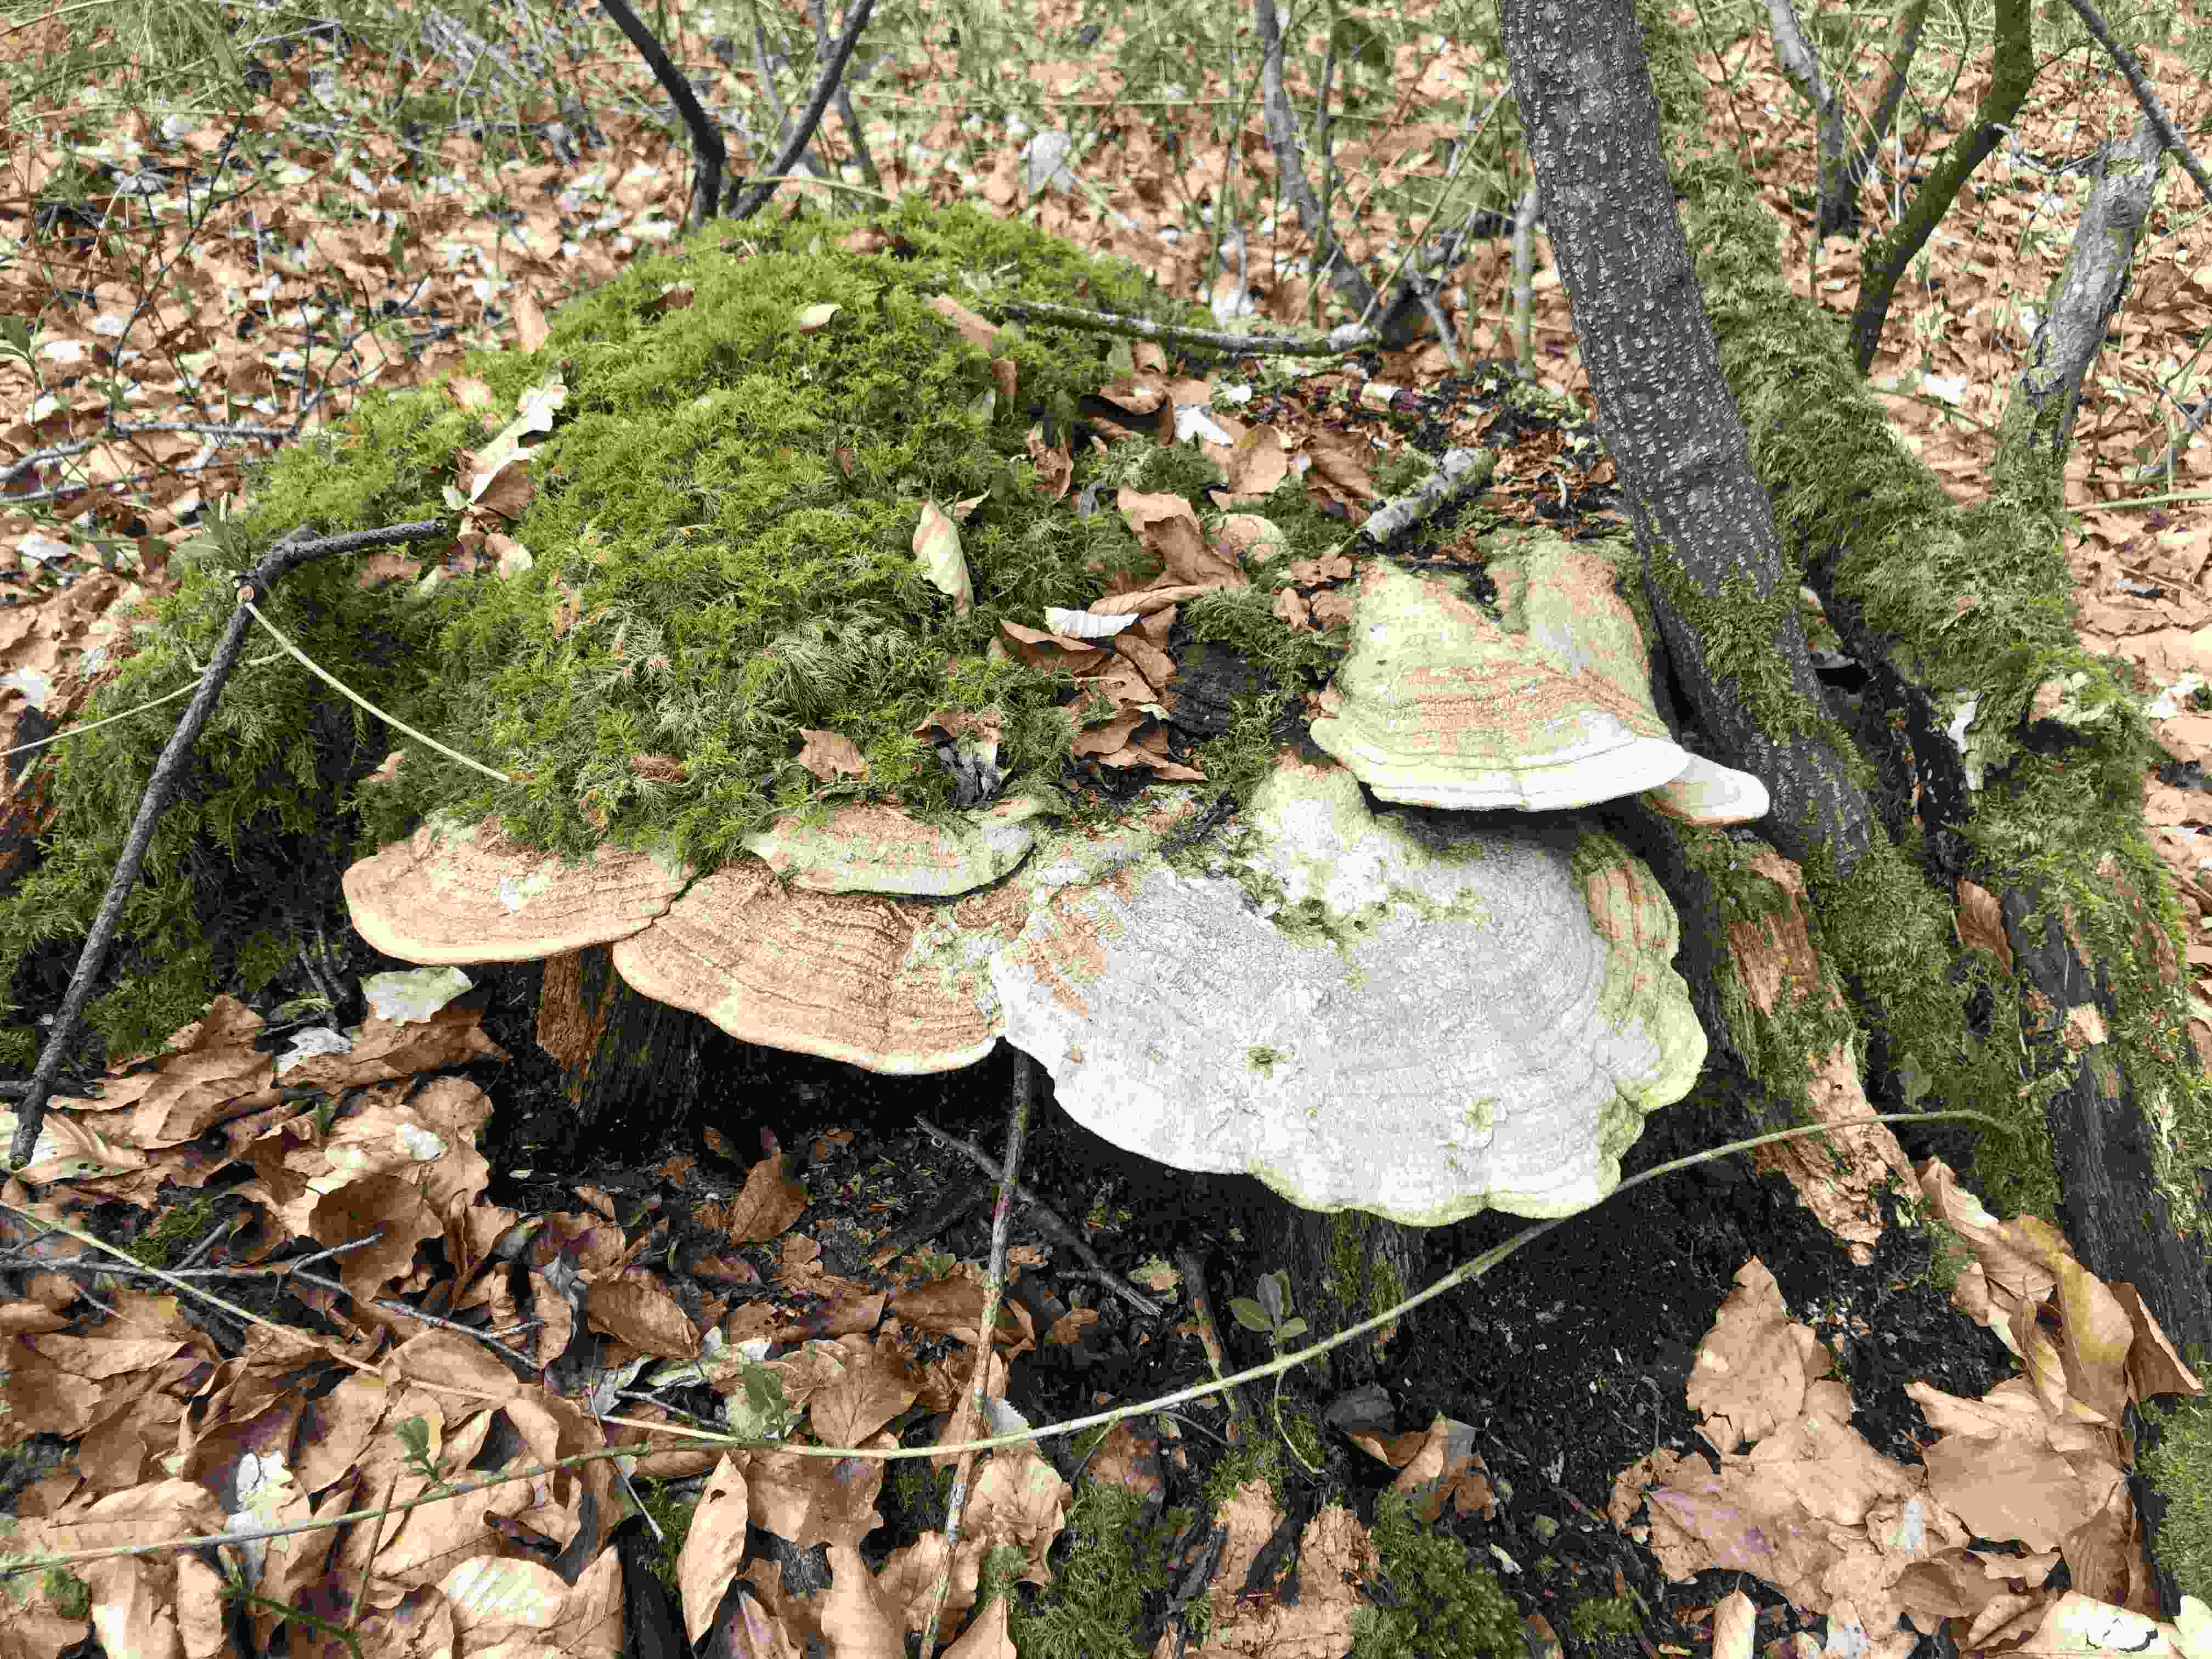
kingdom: Fungi
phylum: Basidiomycota
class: Agaricomycetes
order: Polyporales
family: Fomitopsidaceae
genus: Daedalea
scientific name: Daedalea quercina
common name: ege-labyrintsvamp
